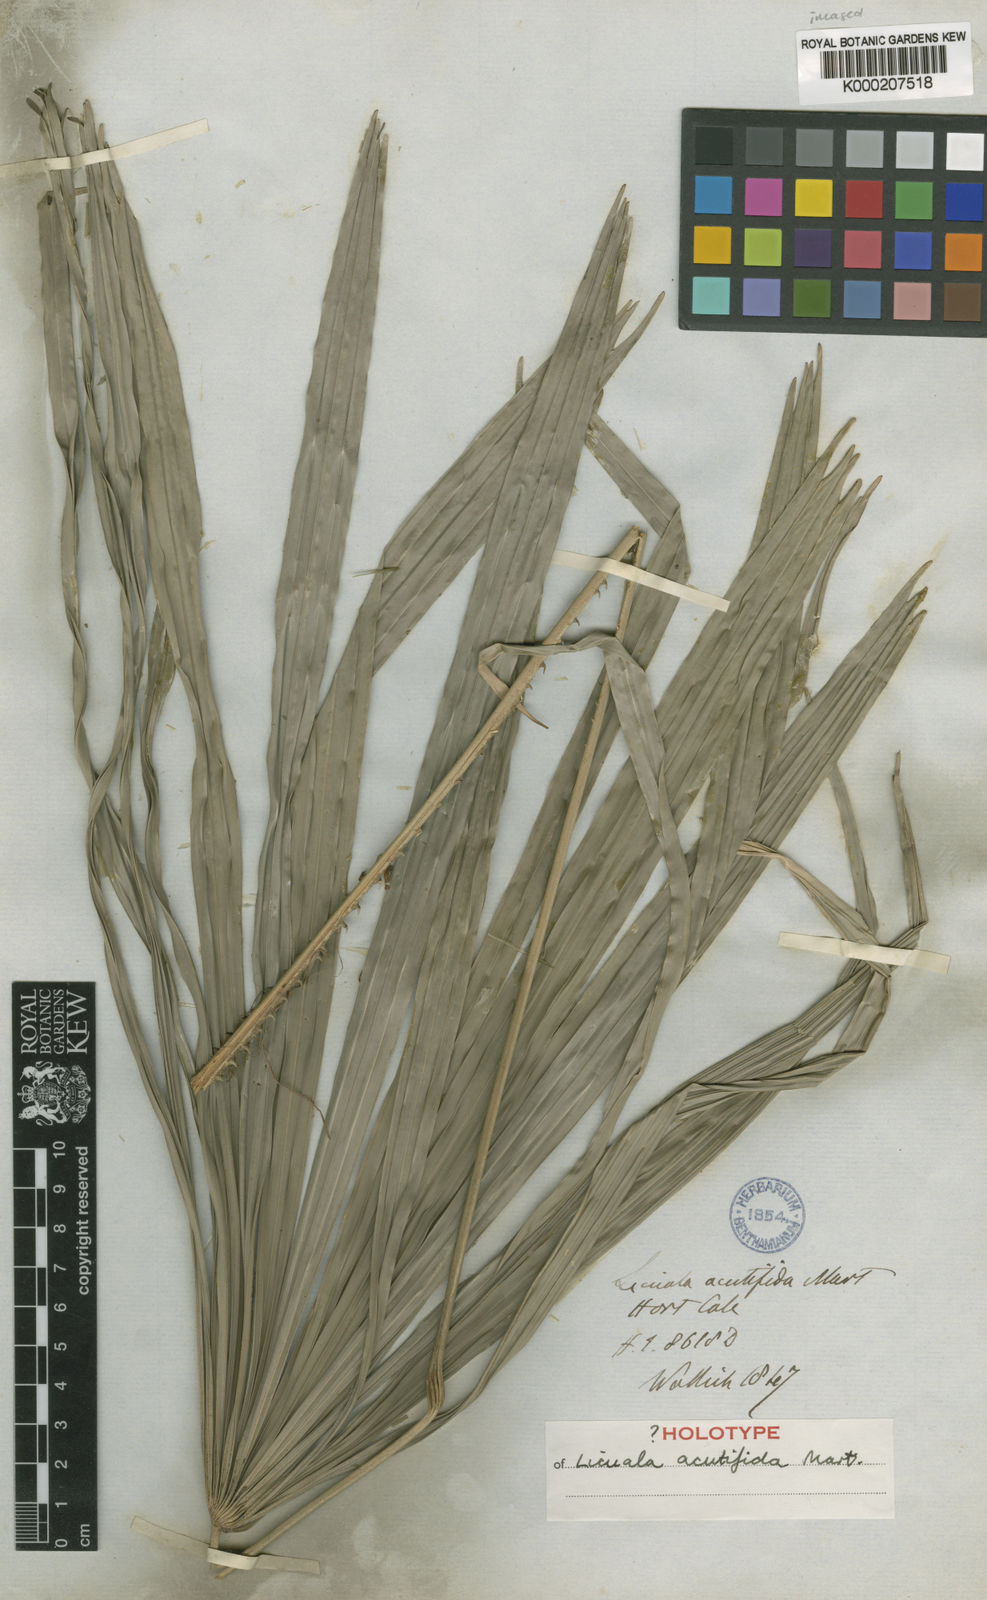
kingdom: Plantae
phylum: Tracheophyta
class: Liliopsida
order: Arecales
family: Arecaceae
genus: Licuala
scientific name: Licuala acutifida
